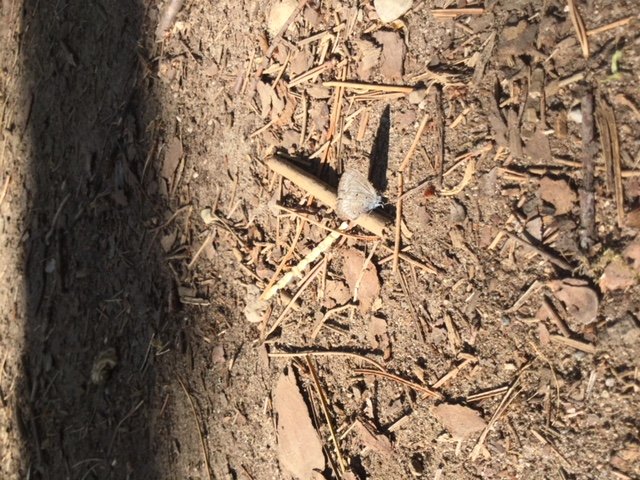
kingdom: Animalia
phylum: Arthropoda
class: Insecta
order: Lepidoptera
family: Lycaenidae
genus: Celastrina
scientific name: Celastrina lucia
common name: Northern Spring Azure
